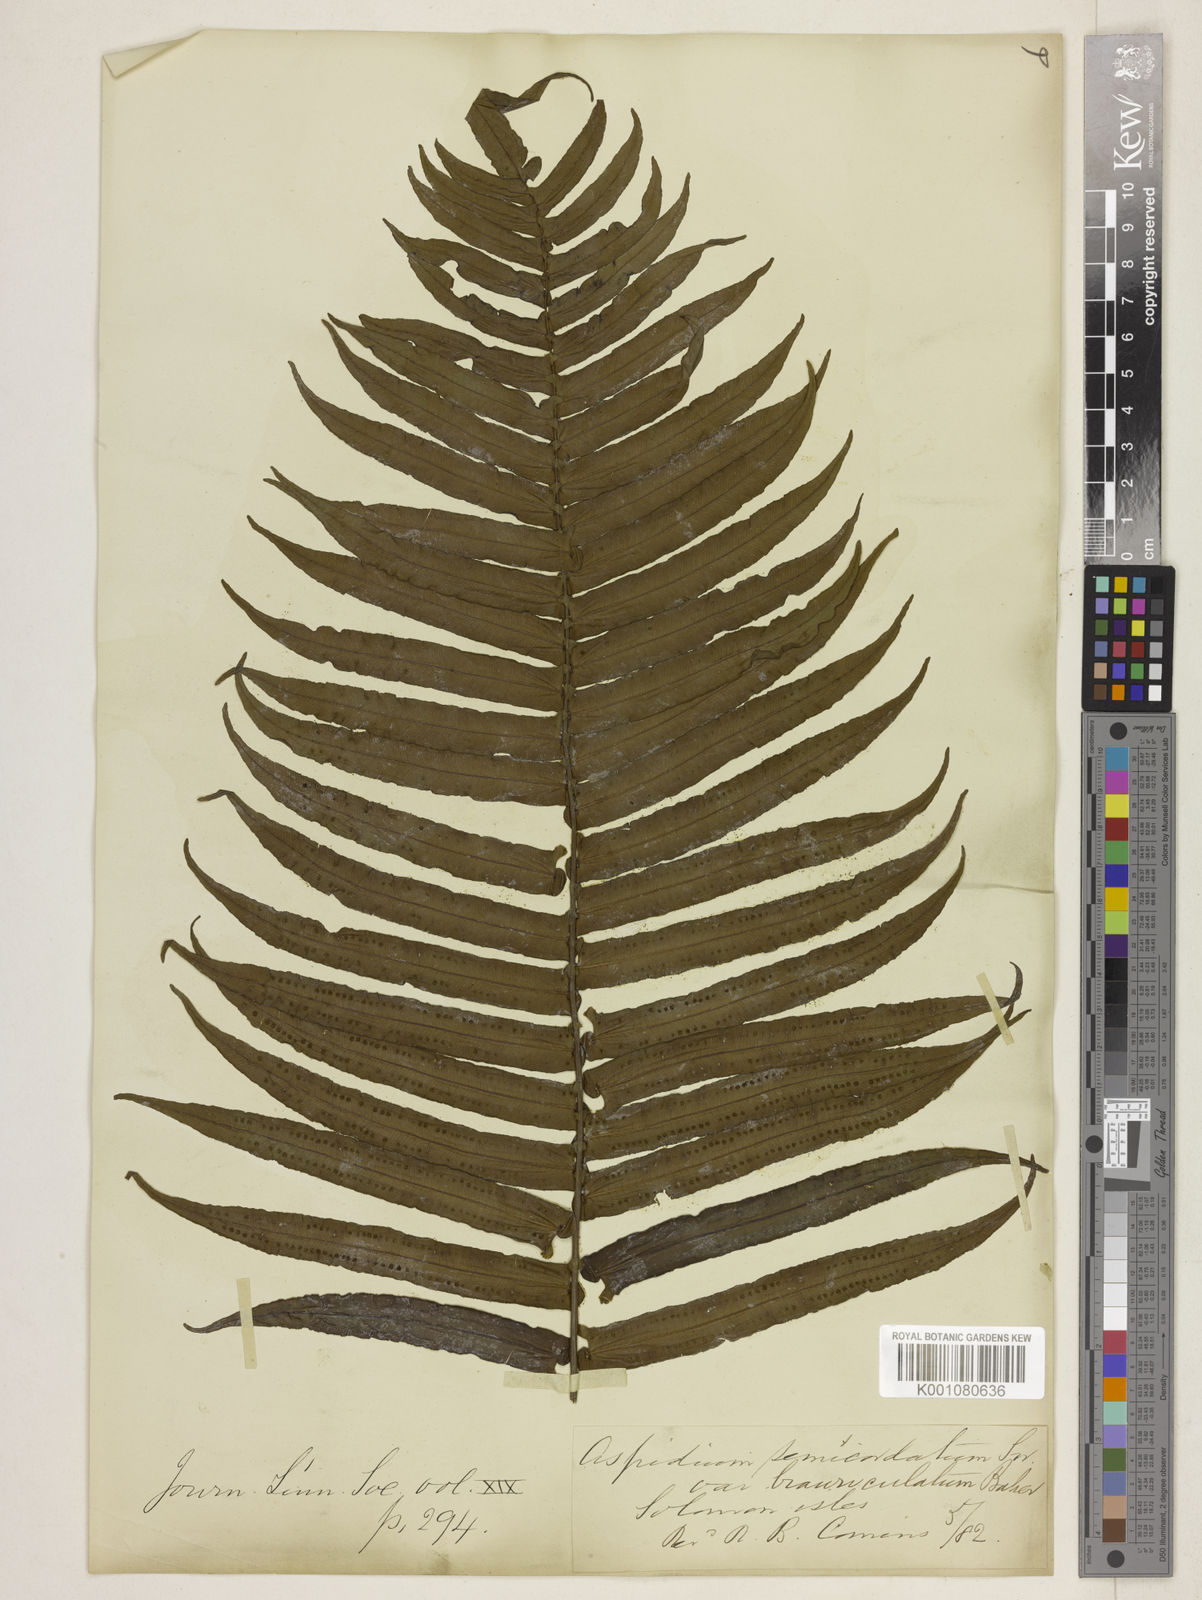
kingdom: Plantae
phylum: Tracheophyta
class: Polypodiopsida
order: Polypodiales
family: Lomariopsidaceae
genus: Cyclopeltis
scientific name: Cyclopeltis novoguineensis
